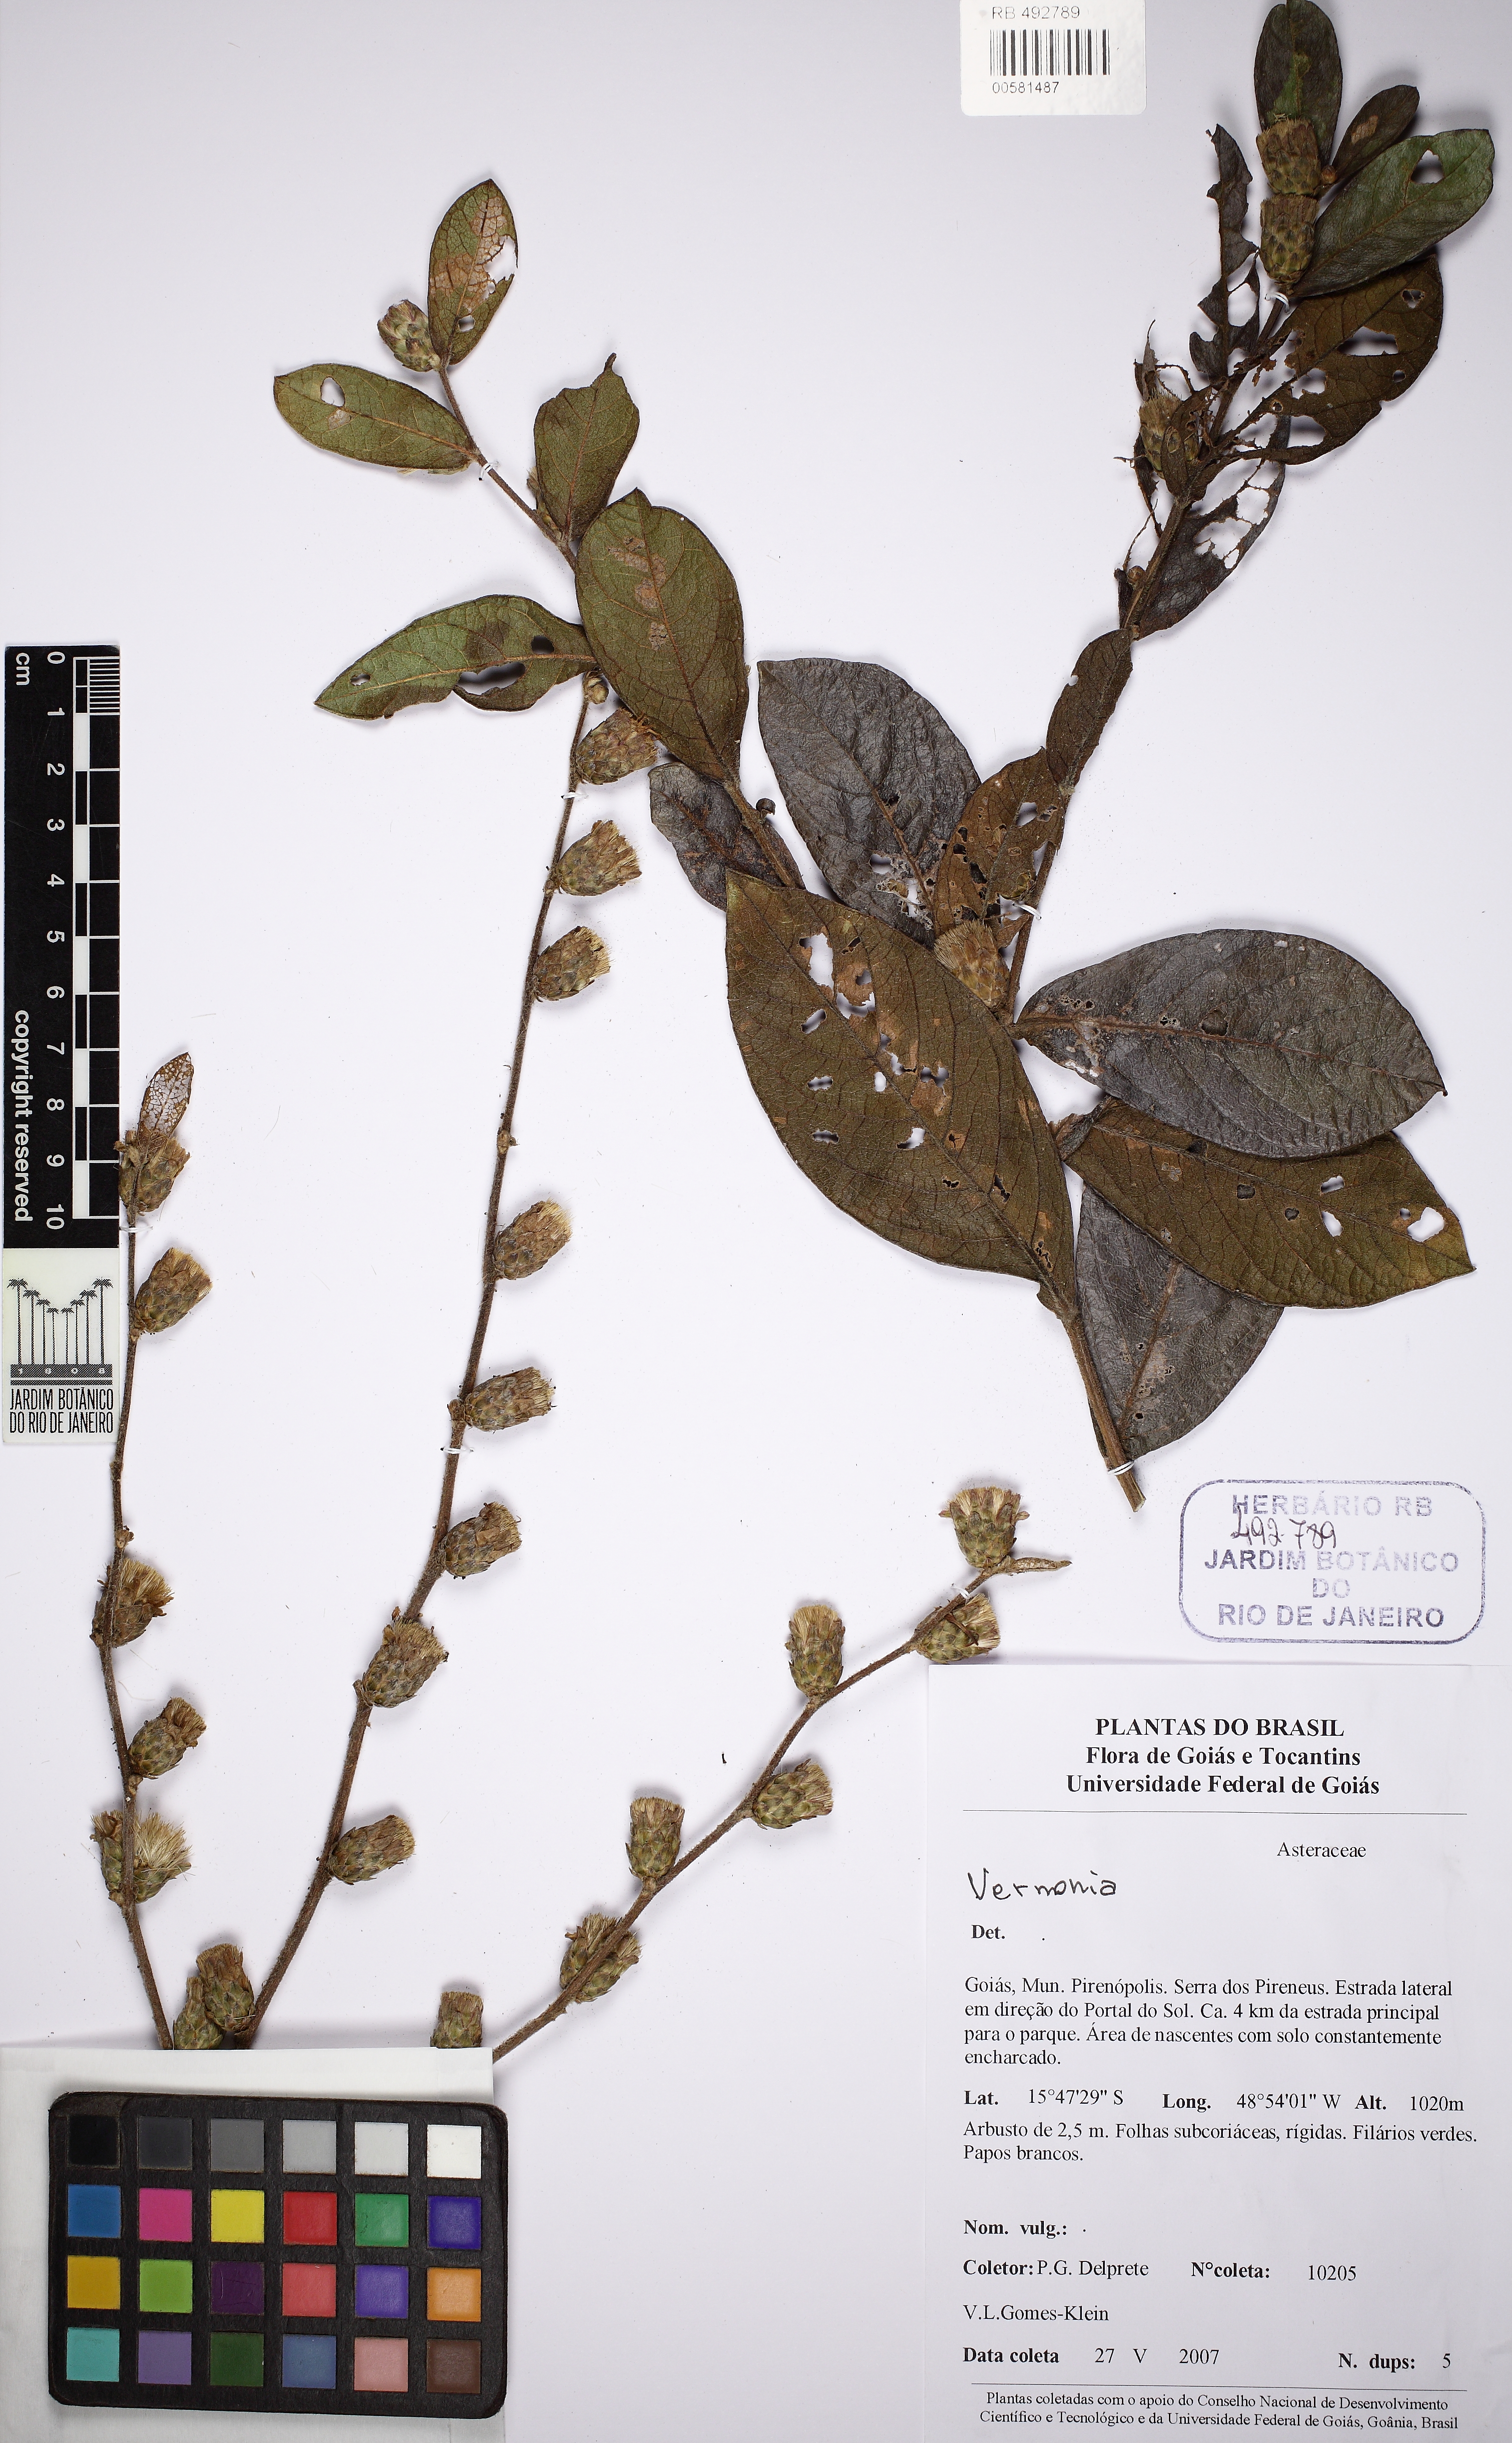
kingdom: Plantae
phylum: Tracheophyta
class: Magnoliopsida
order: Asterales
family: Asteraceae
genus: Vernonia
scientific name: Vernonia
